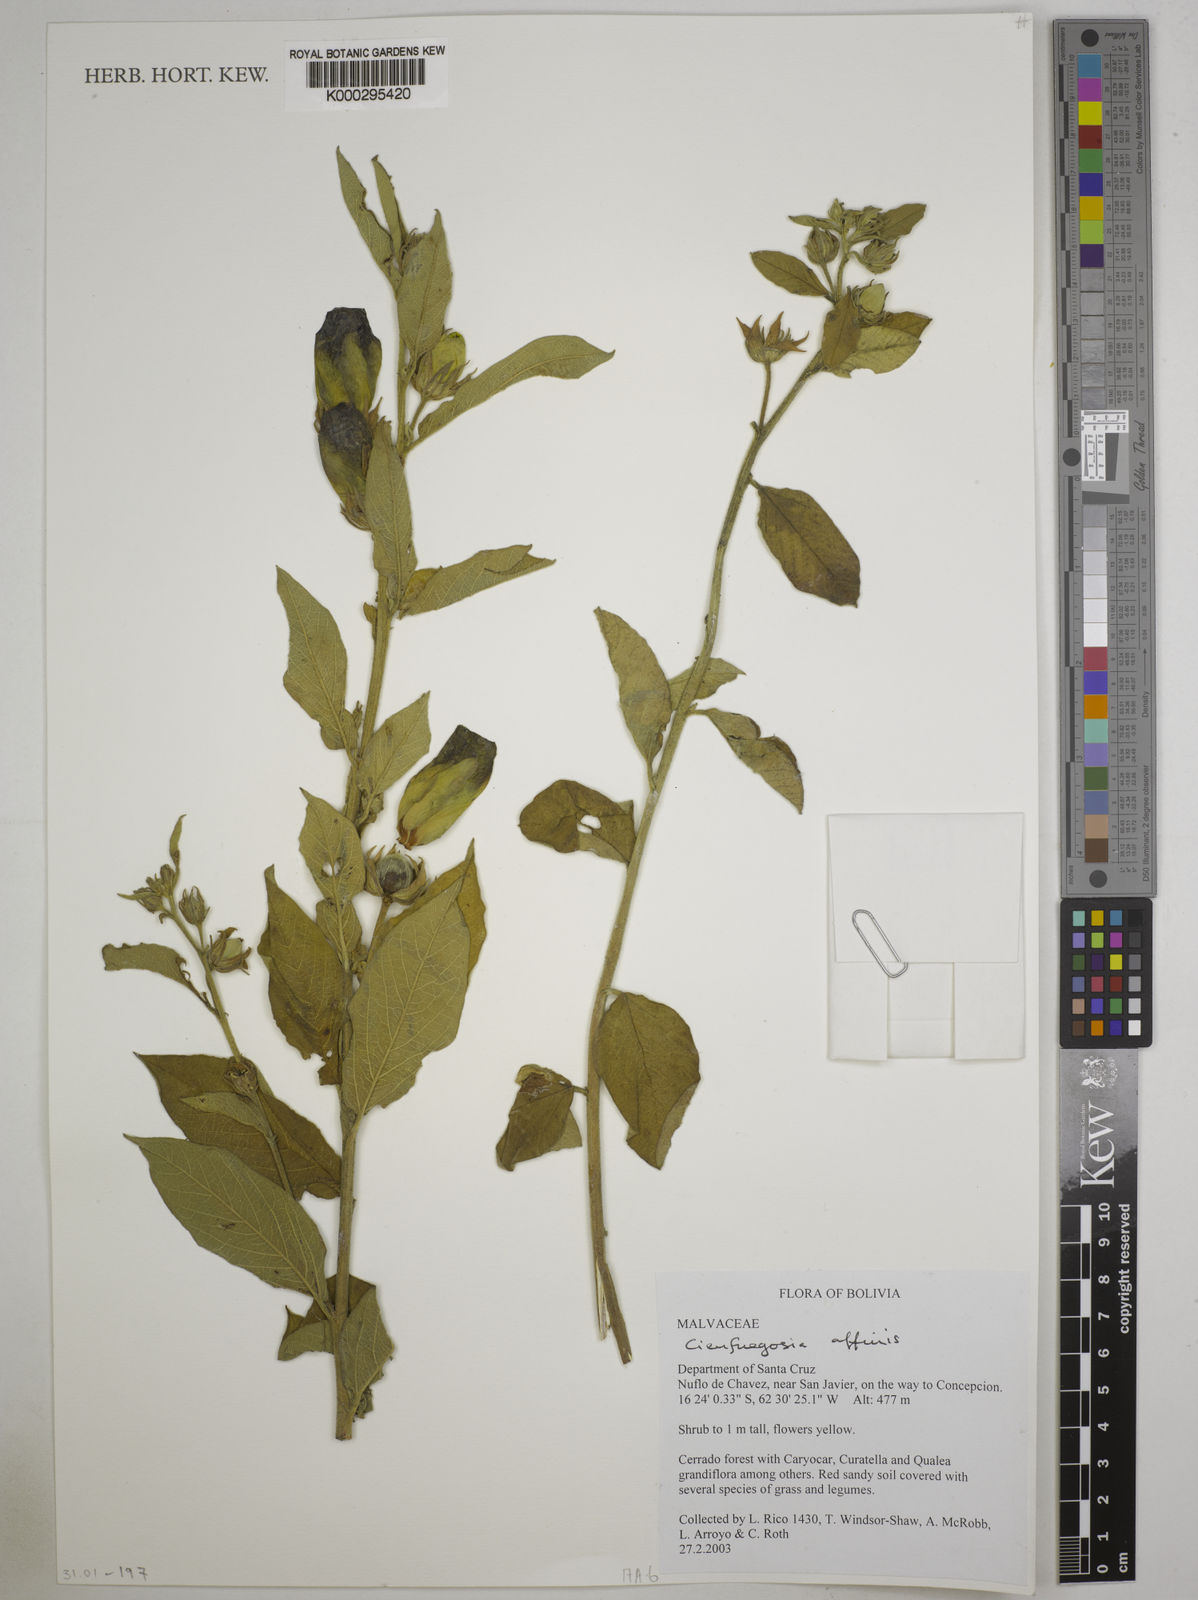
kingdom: Plantae
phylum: Tracheophyta
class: Magnoliopsida
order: Malvales
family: Malvaceae
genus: Cienfuegosia
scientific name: Cienfuegosia affinis
